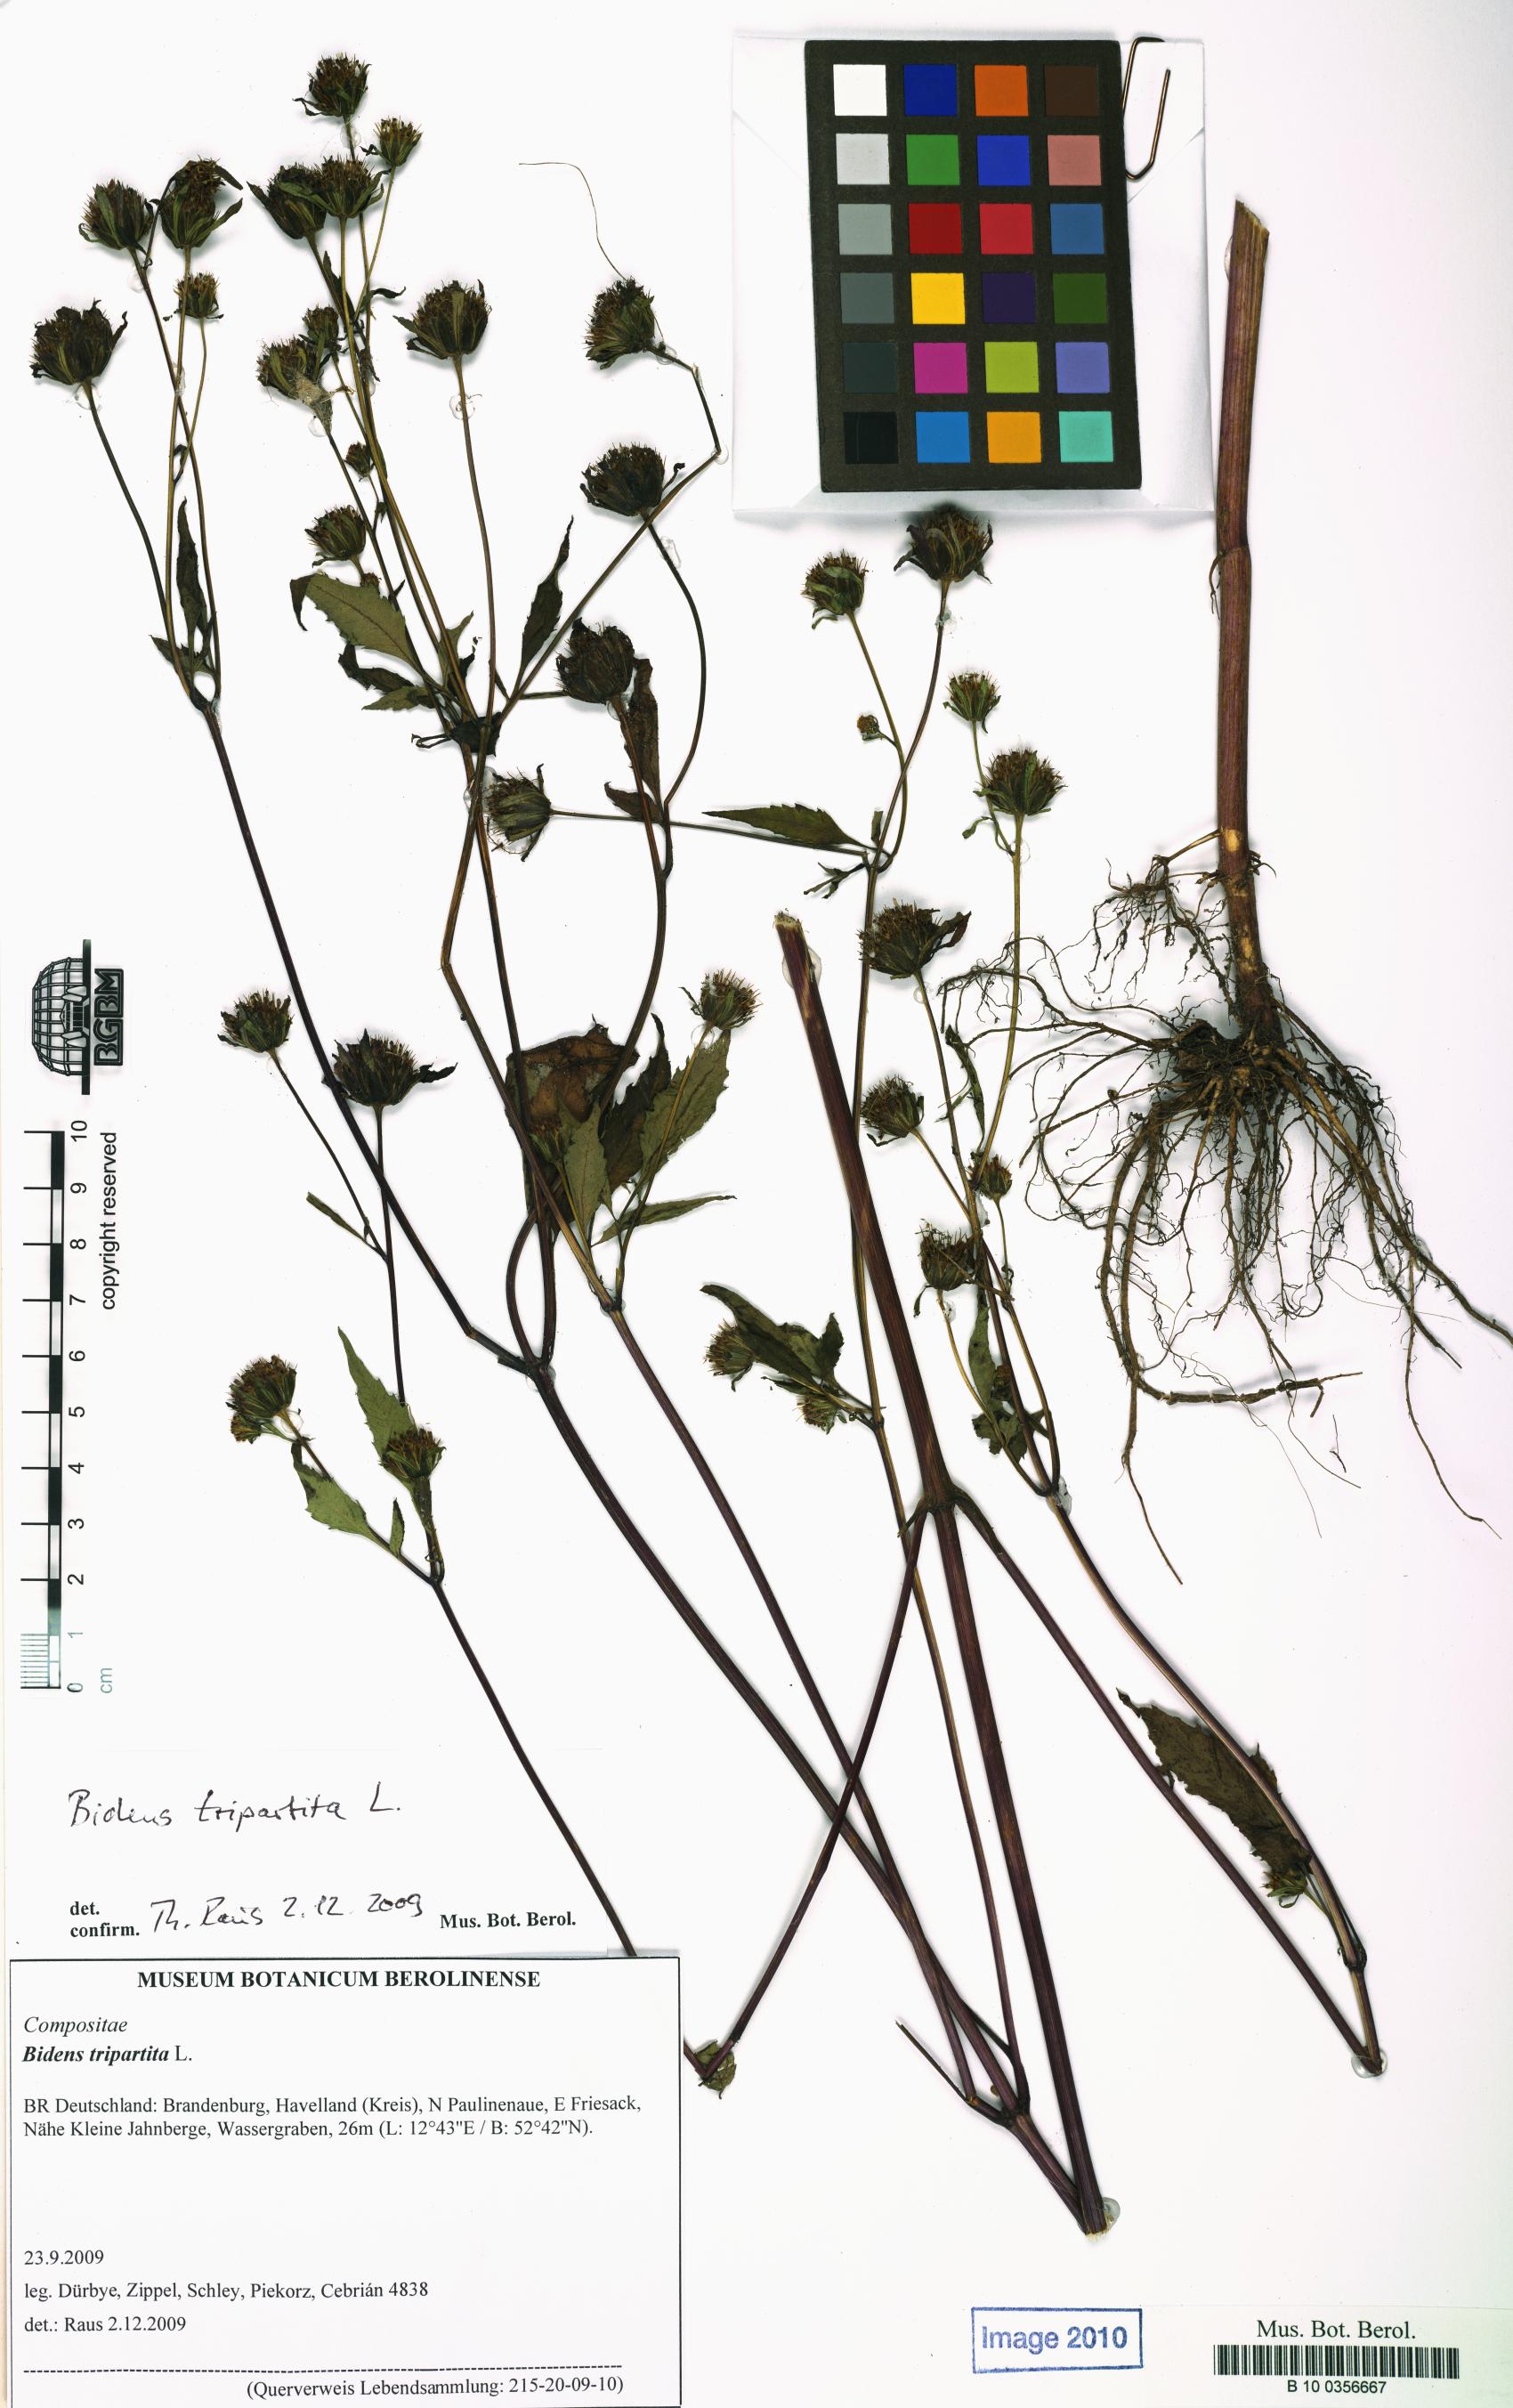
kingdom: Plantae
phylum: Tracheophyta
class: Magnoliopsida
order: Asterales
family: Asteraceae
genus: Bidens
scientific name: Bidens frondosa
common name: Beggarticks
